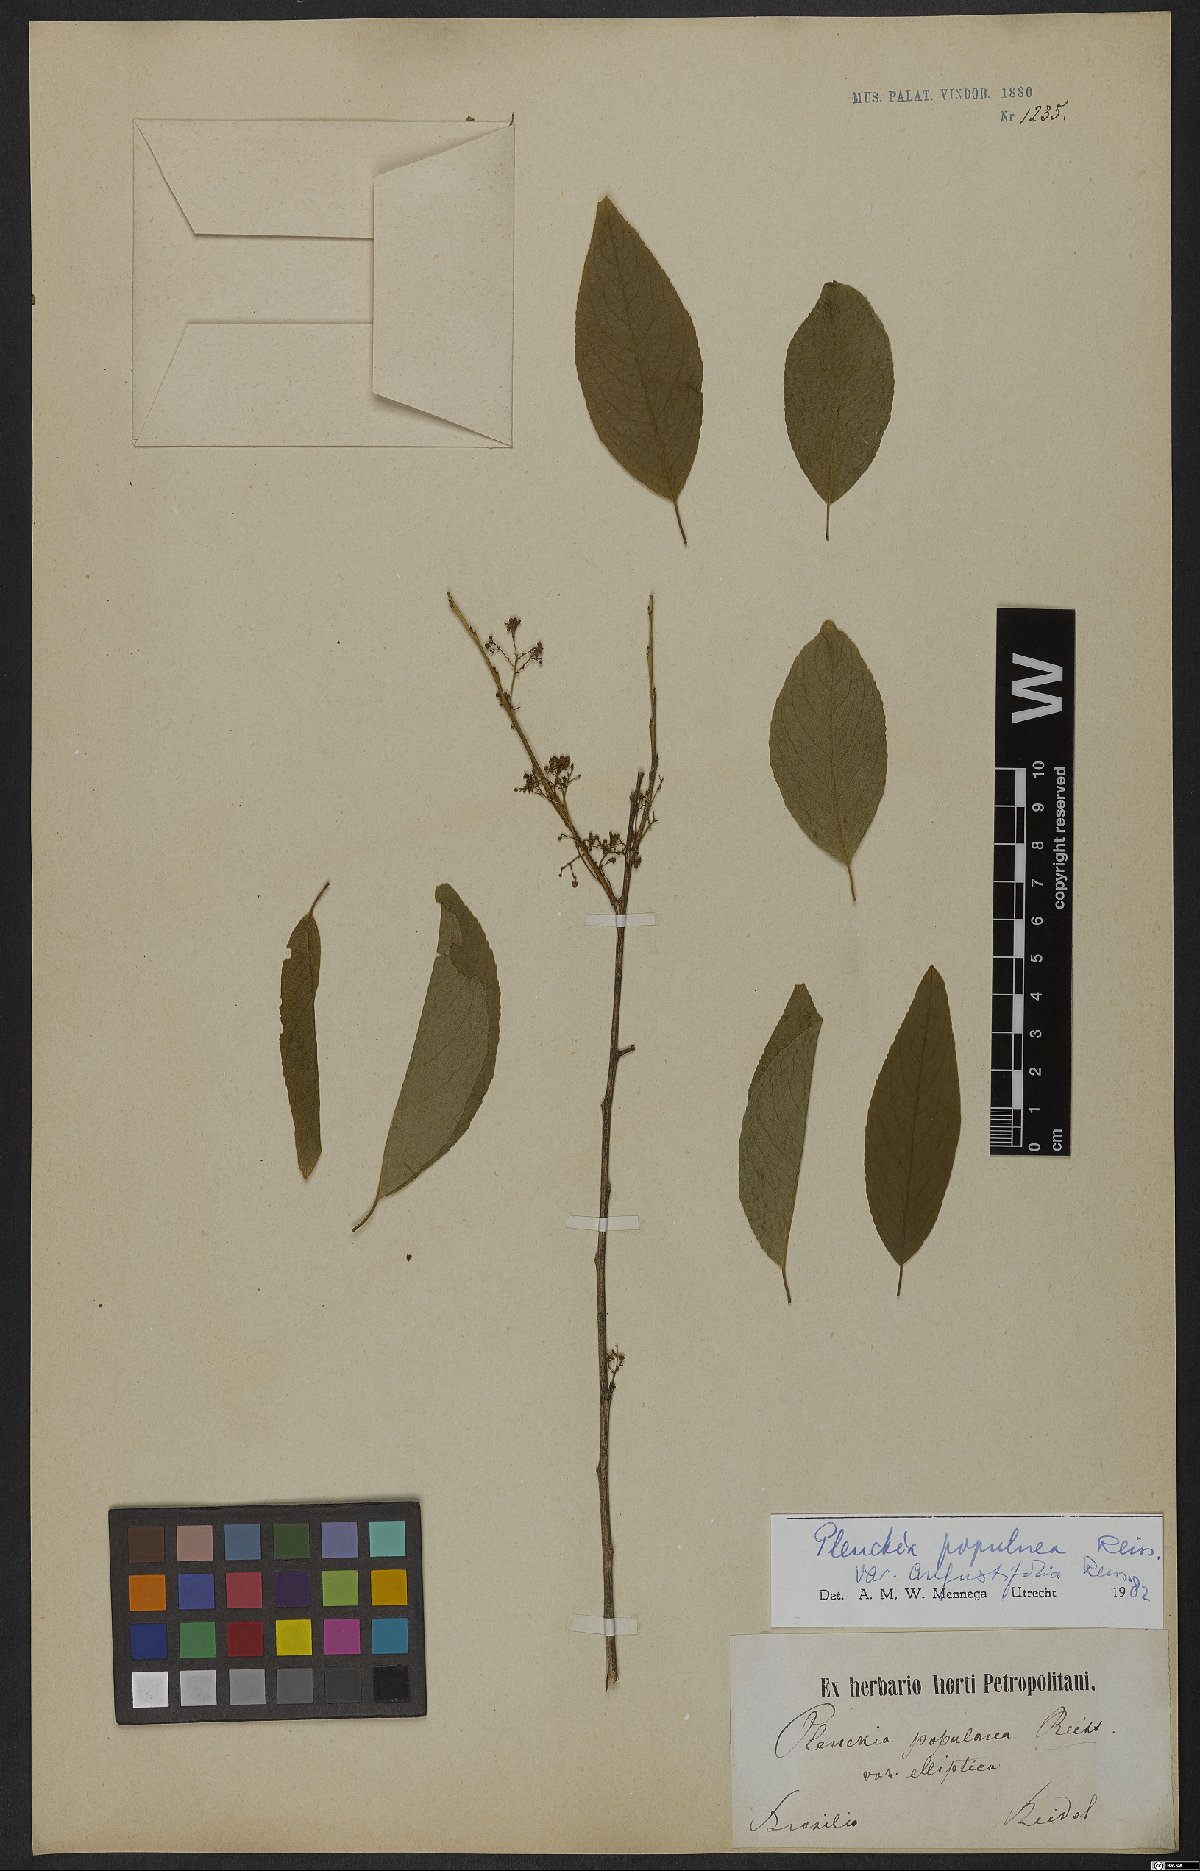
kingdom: Plantae
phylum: Tracheophyta
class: Magnoliopsida
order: Celastrales
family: Celastraceae
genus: Plenckia
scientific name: Plenckia populnea
